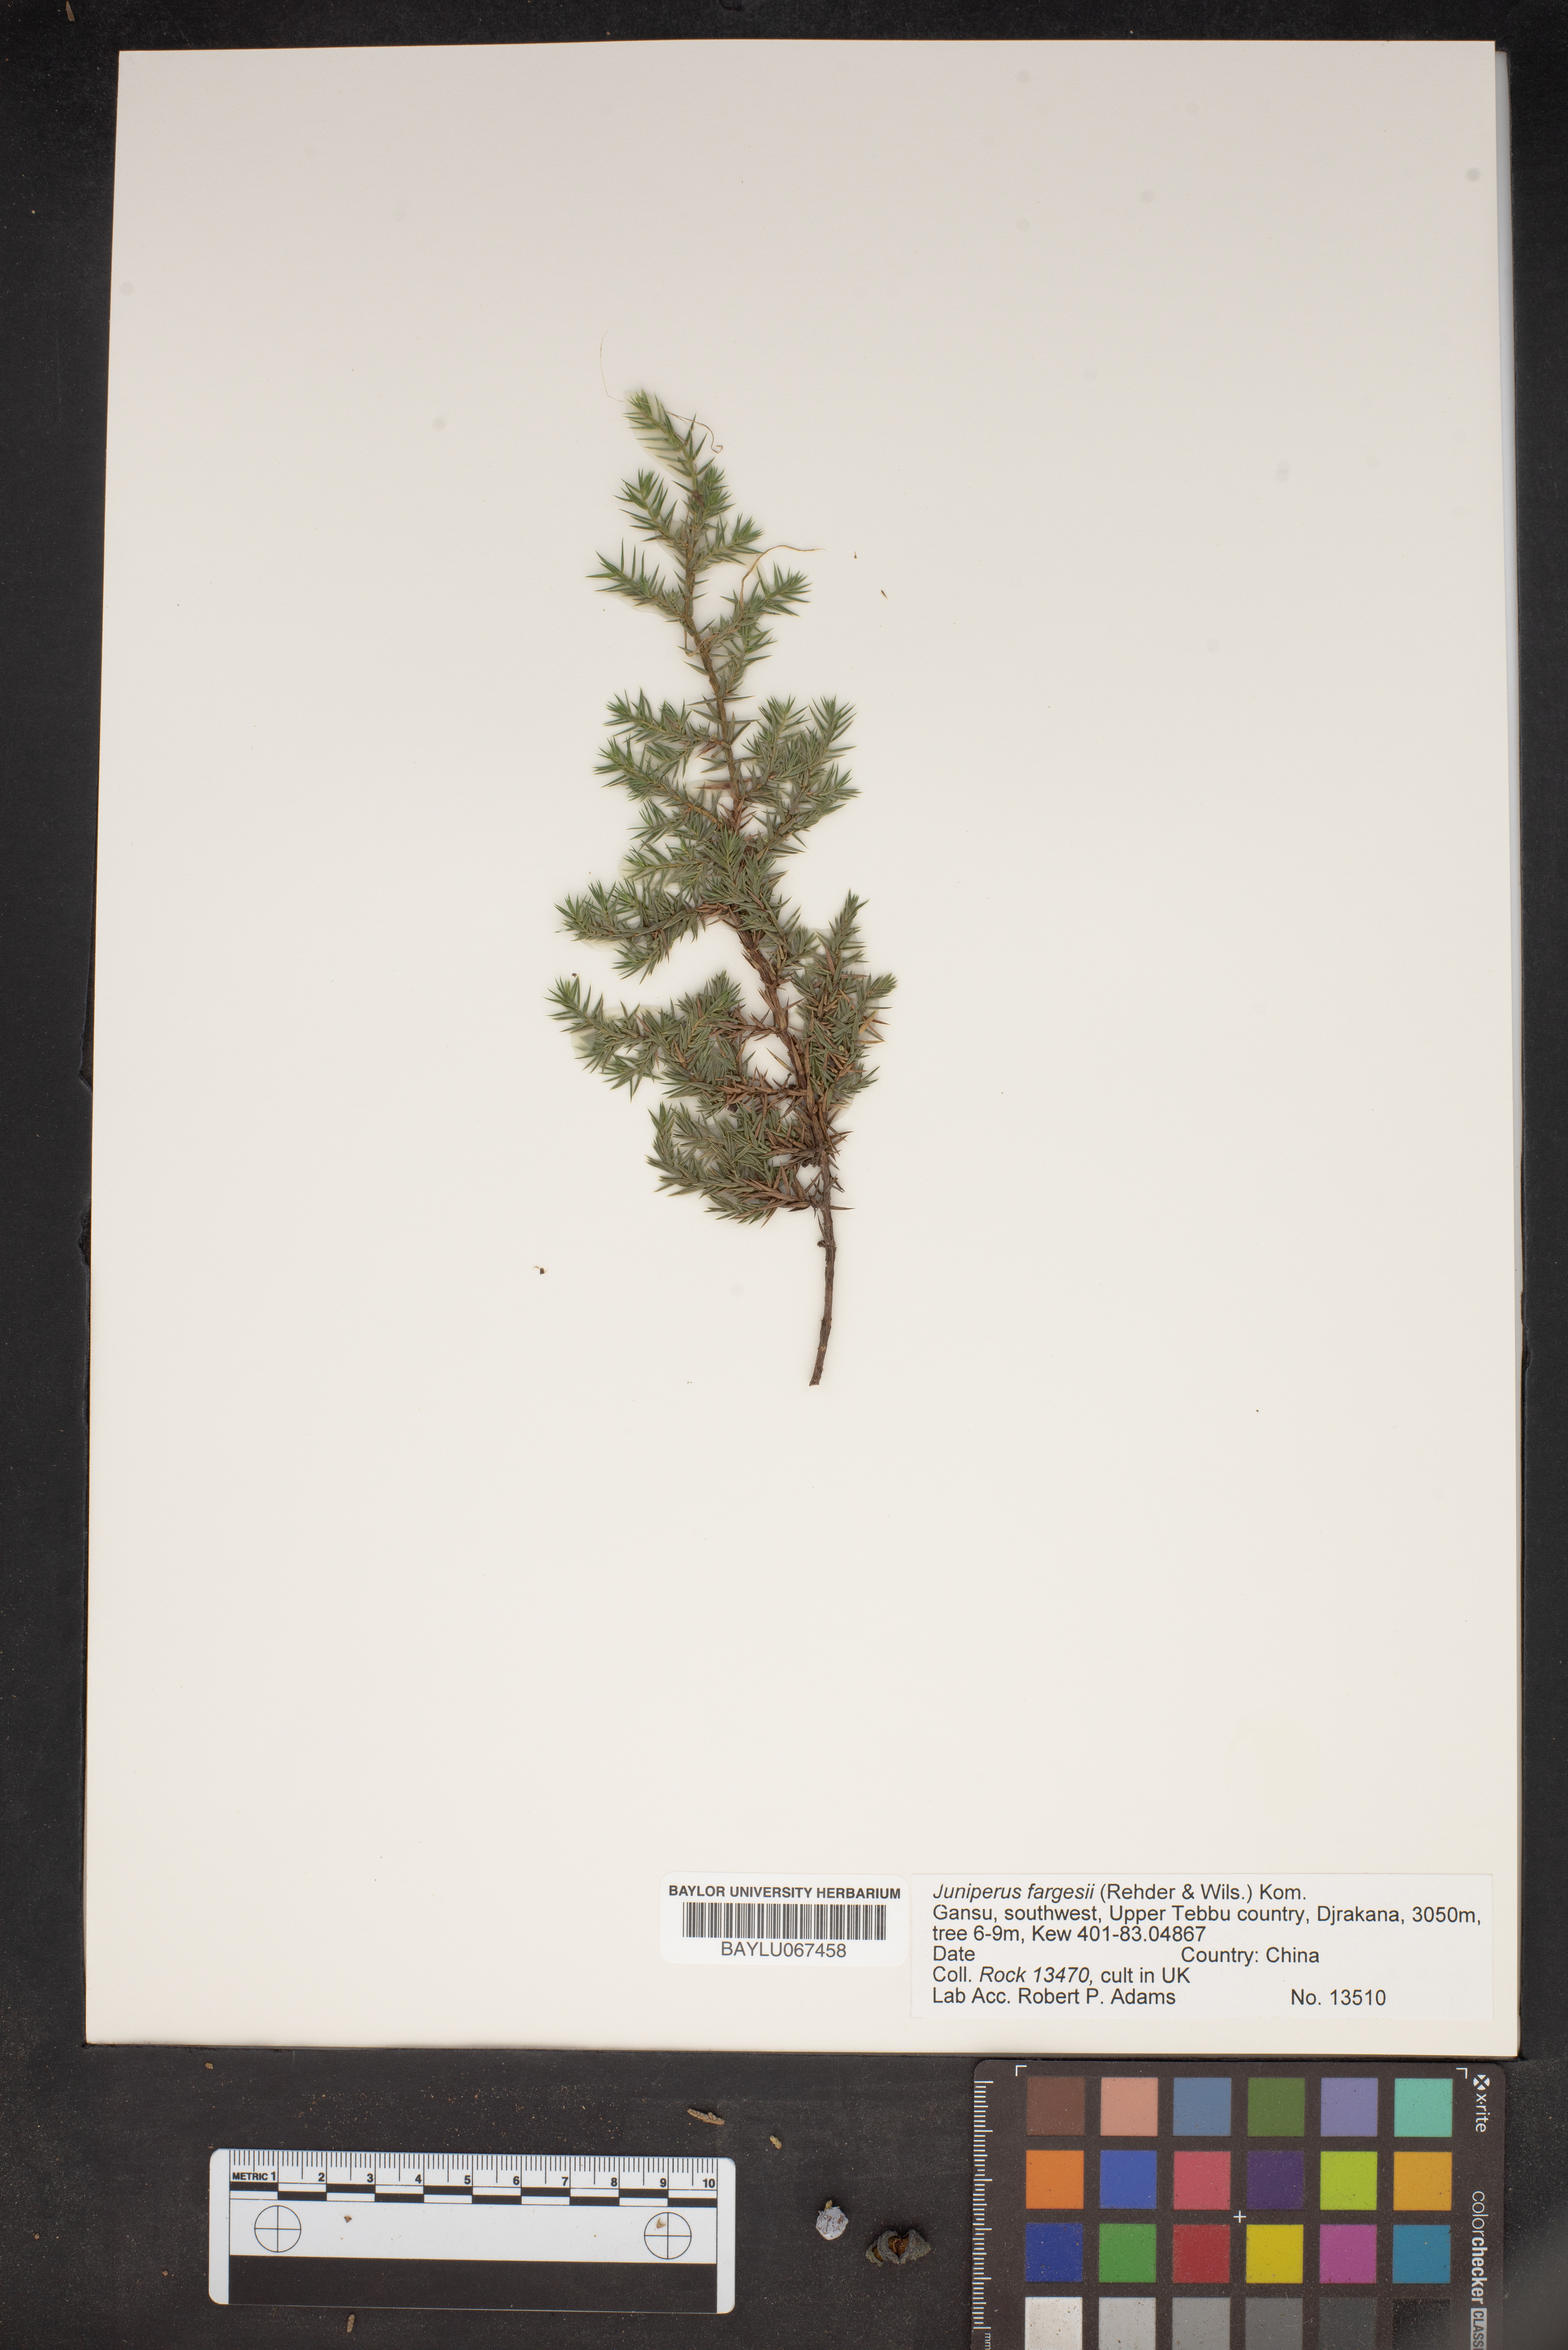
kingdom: Plantae
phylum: Tracheophyta
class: Pinopsida
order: Pinales
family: Cupressaceae
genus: Juniperus
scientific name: Juniperus squamata
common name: Flaky juniper
